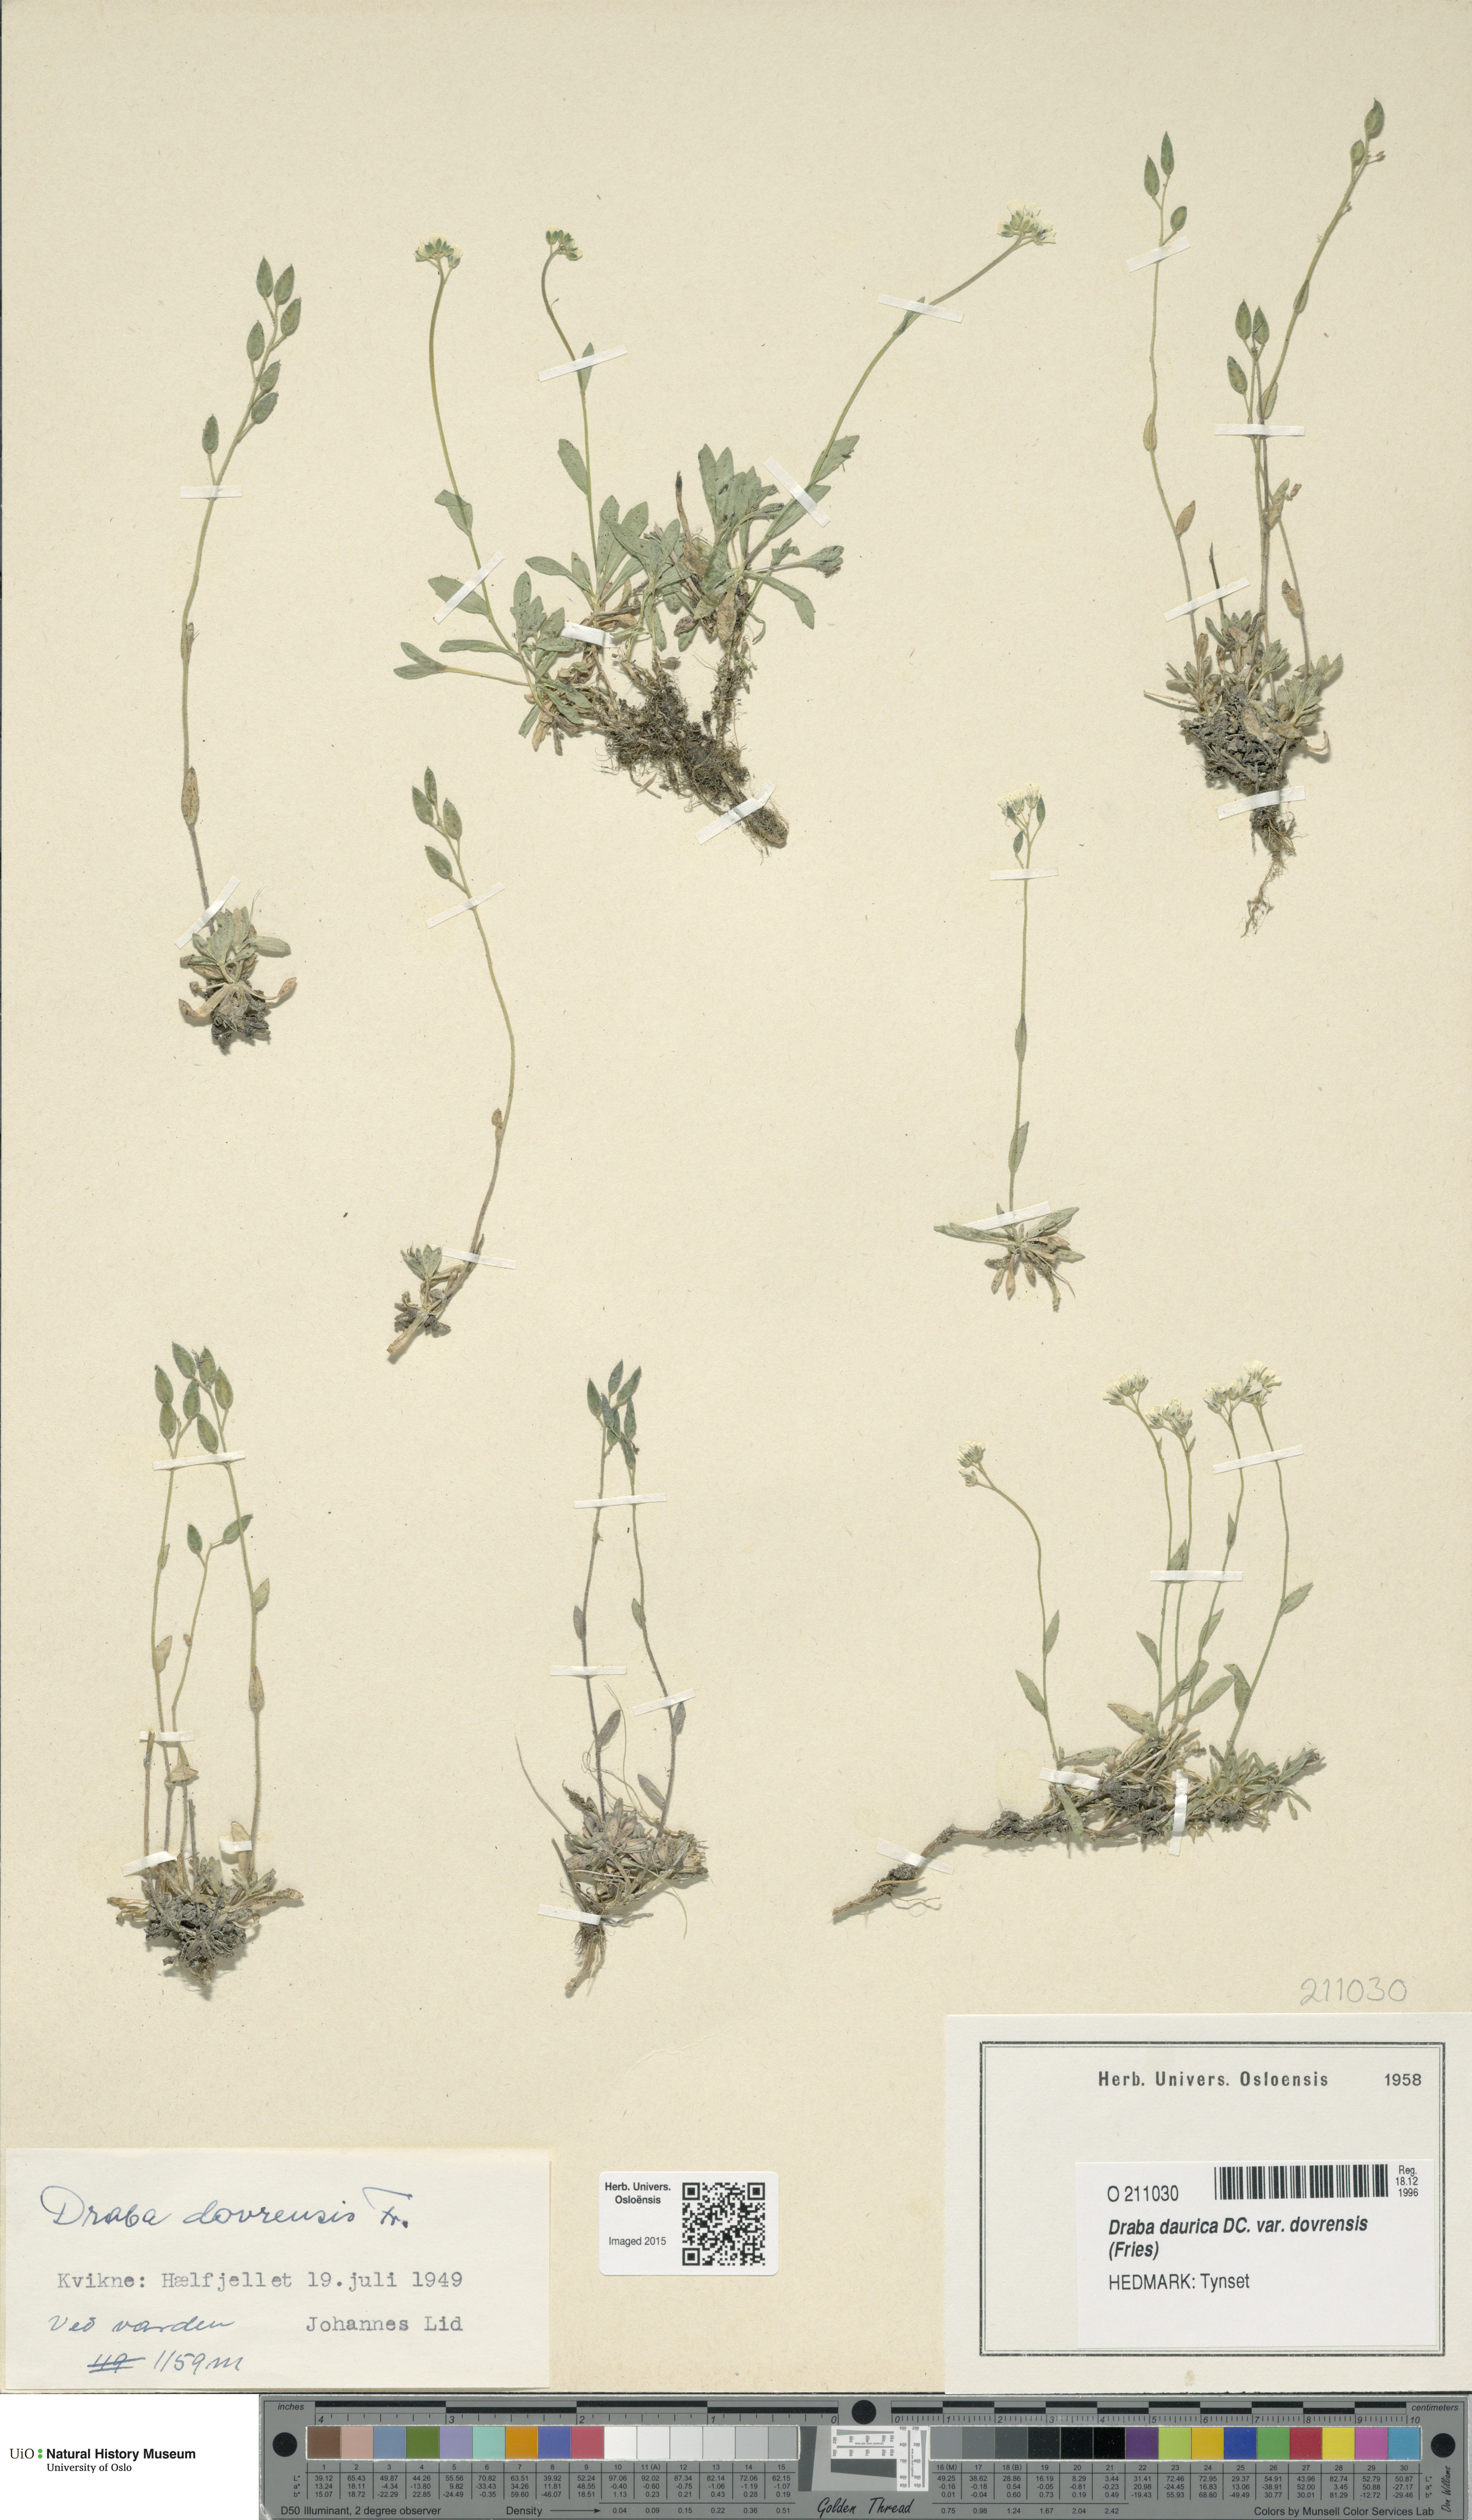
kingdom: Plantae
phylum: Tracheophyta
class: Magnoliopsida
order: Brassicales
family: Brassicaceae
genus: Draba
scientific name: Draba glabella
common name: Glaucous draba
